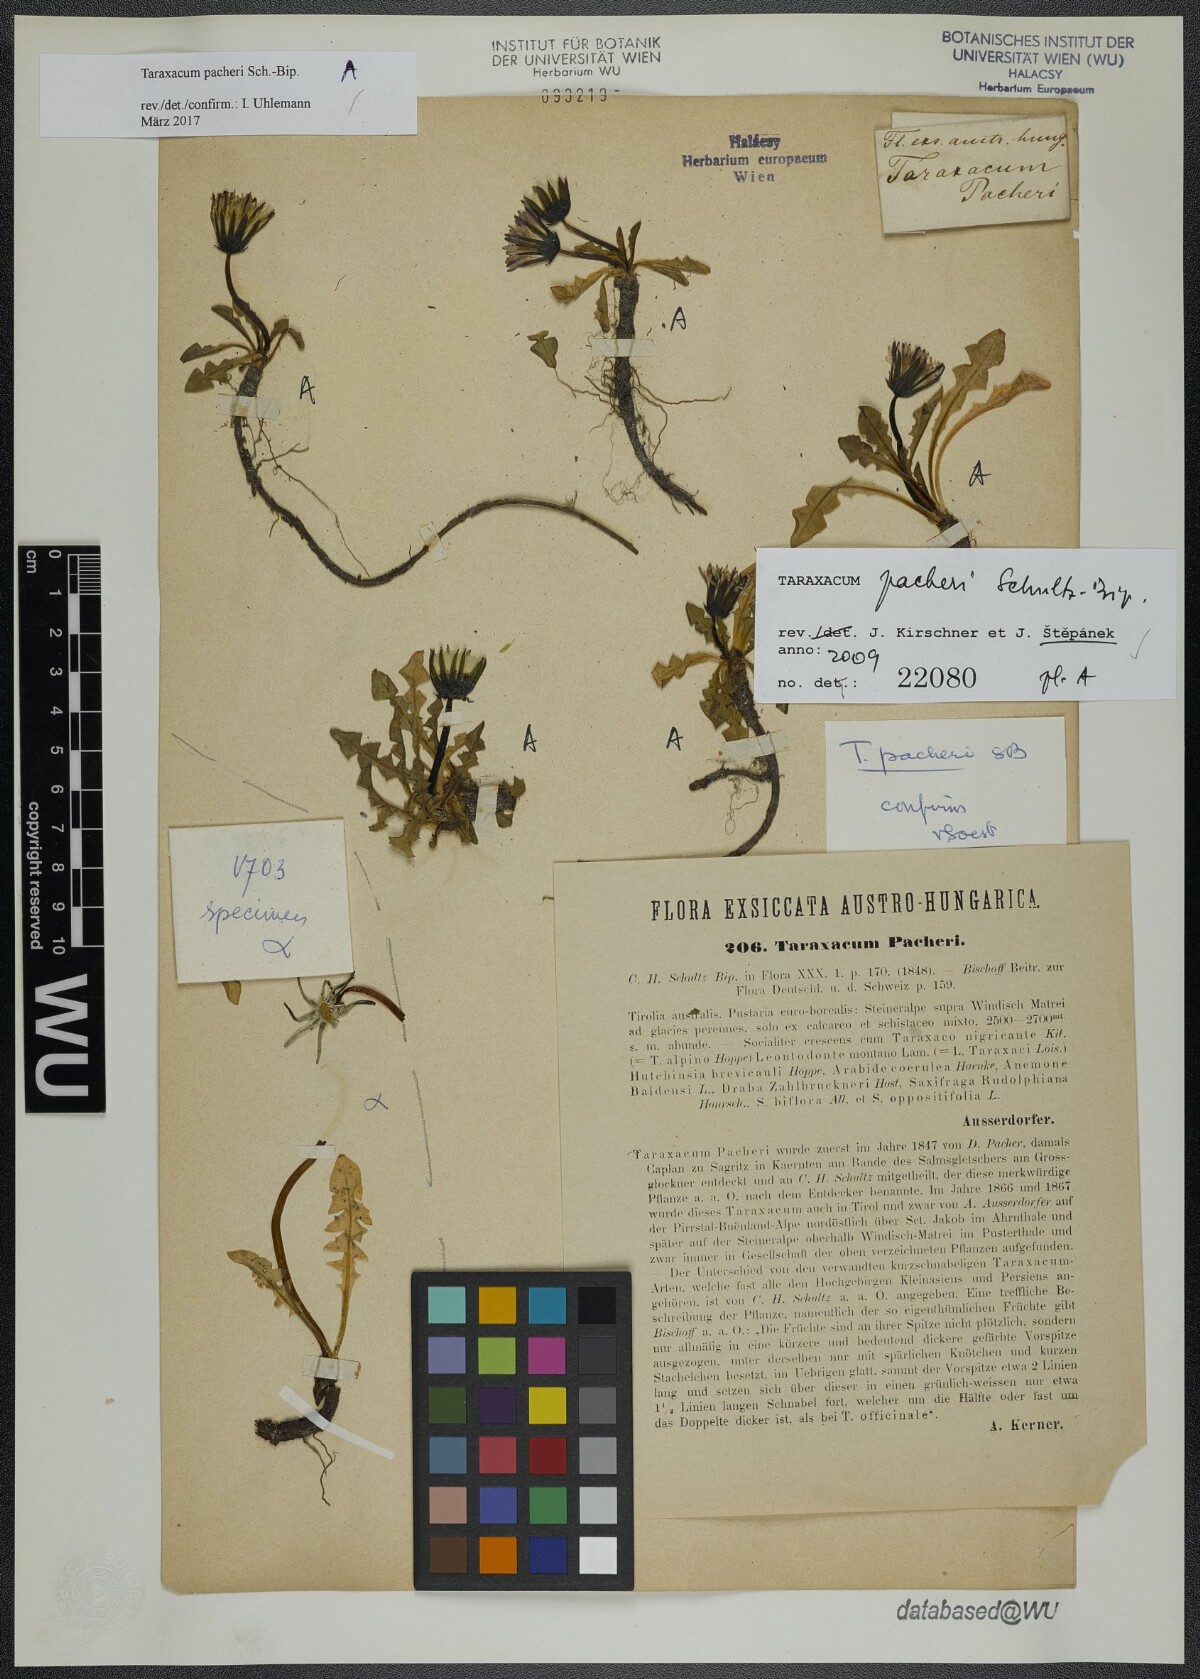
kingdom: Plantae
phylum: Tracheophyta
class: Magnoliopsida
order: Asterales
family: Asteraceae
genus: Taraxacum
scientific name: Taraxacum pacheri
